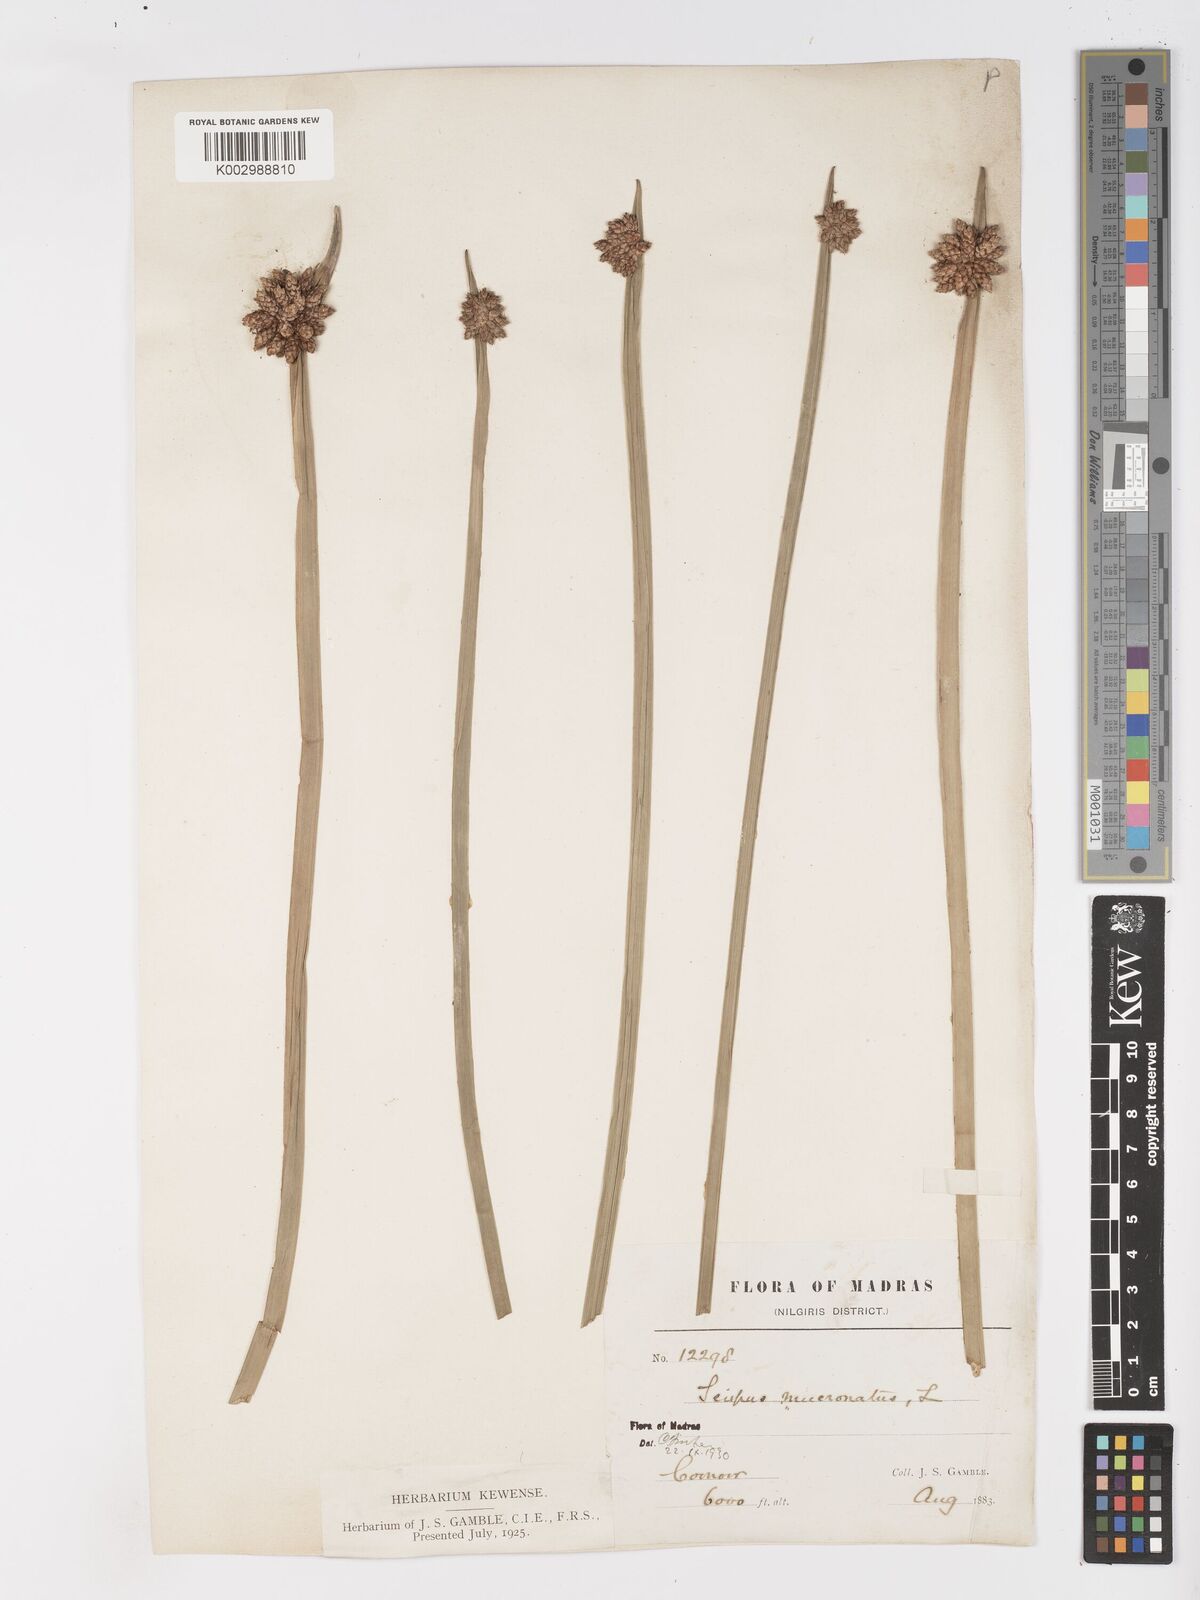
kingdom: Plantae
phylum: Tracheophyta
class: Liliopsida
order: Poales
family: Cyperaceae
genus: Schoenoplectiella
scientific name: Schoenoplectiella mucronata
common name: Bog bulrush
